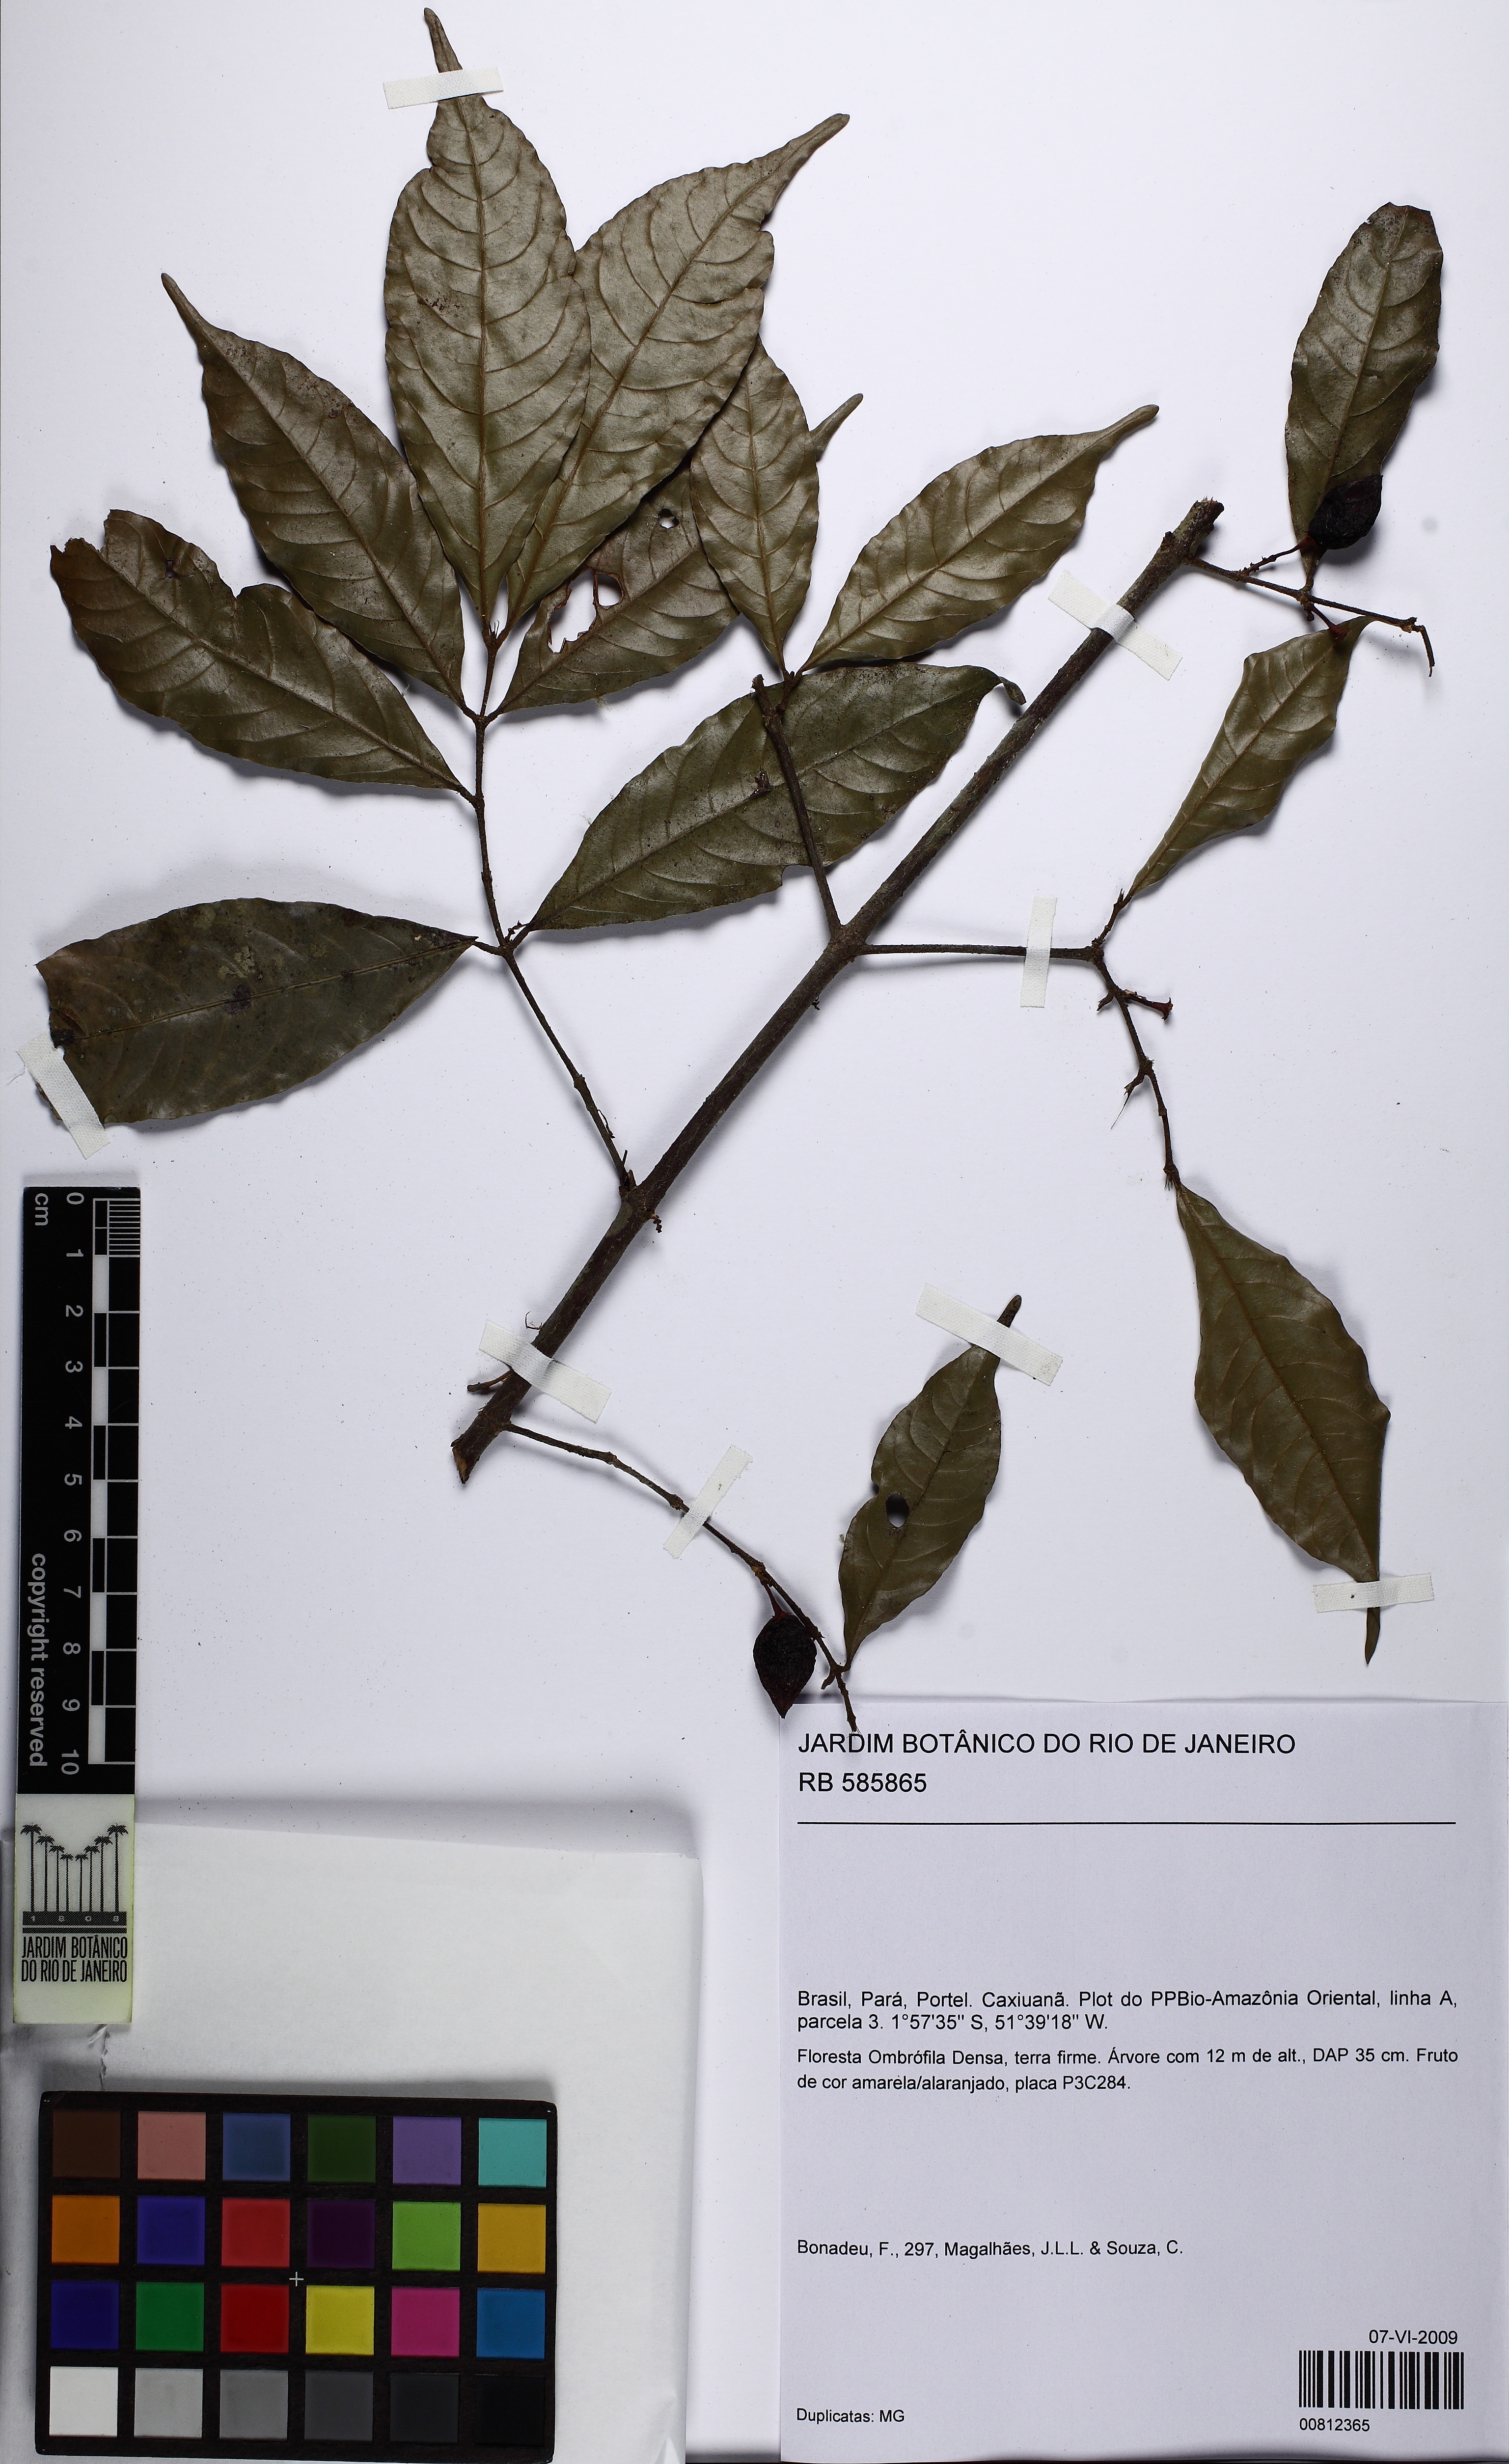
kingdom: Plantae
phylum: Tracheophyta
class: Magnoliopsida
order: Malpighiales
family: Quiinaceae
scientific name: Quiinaceae
